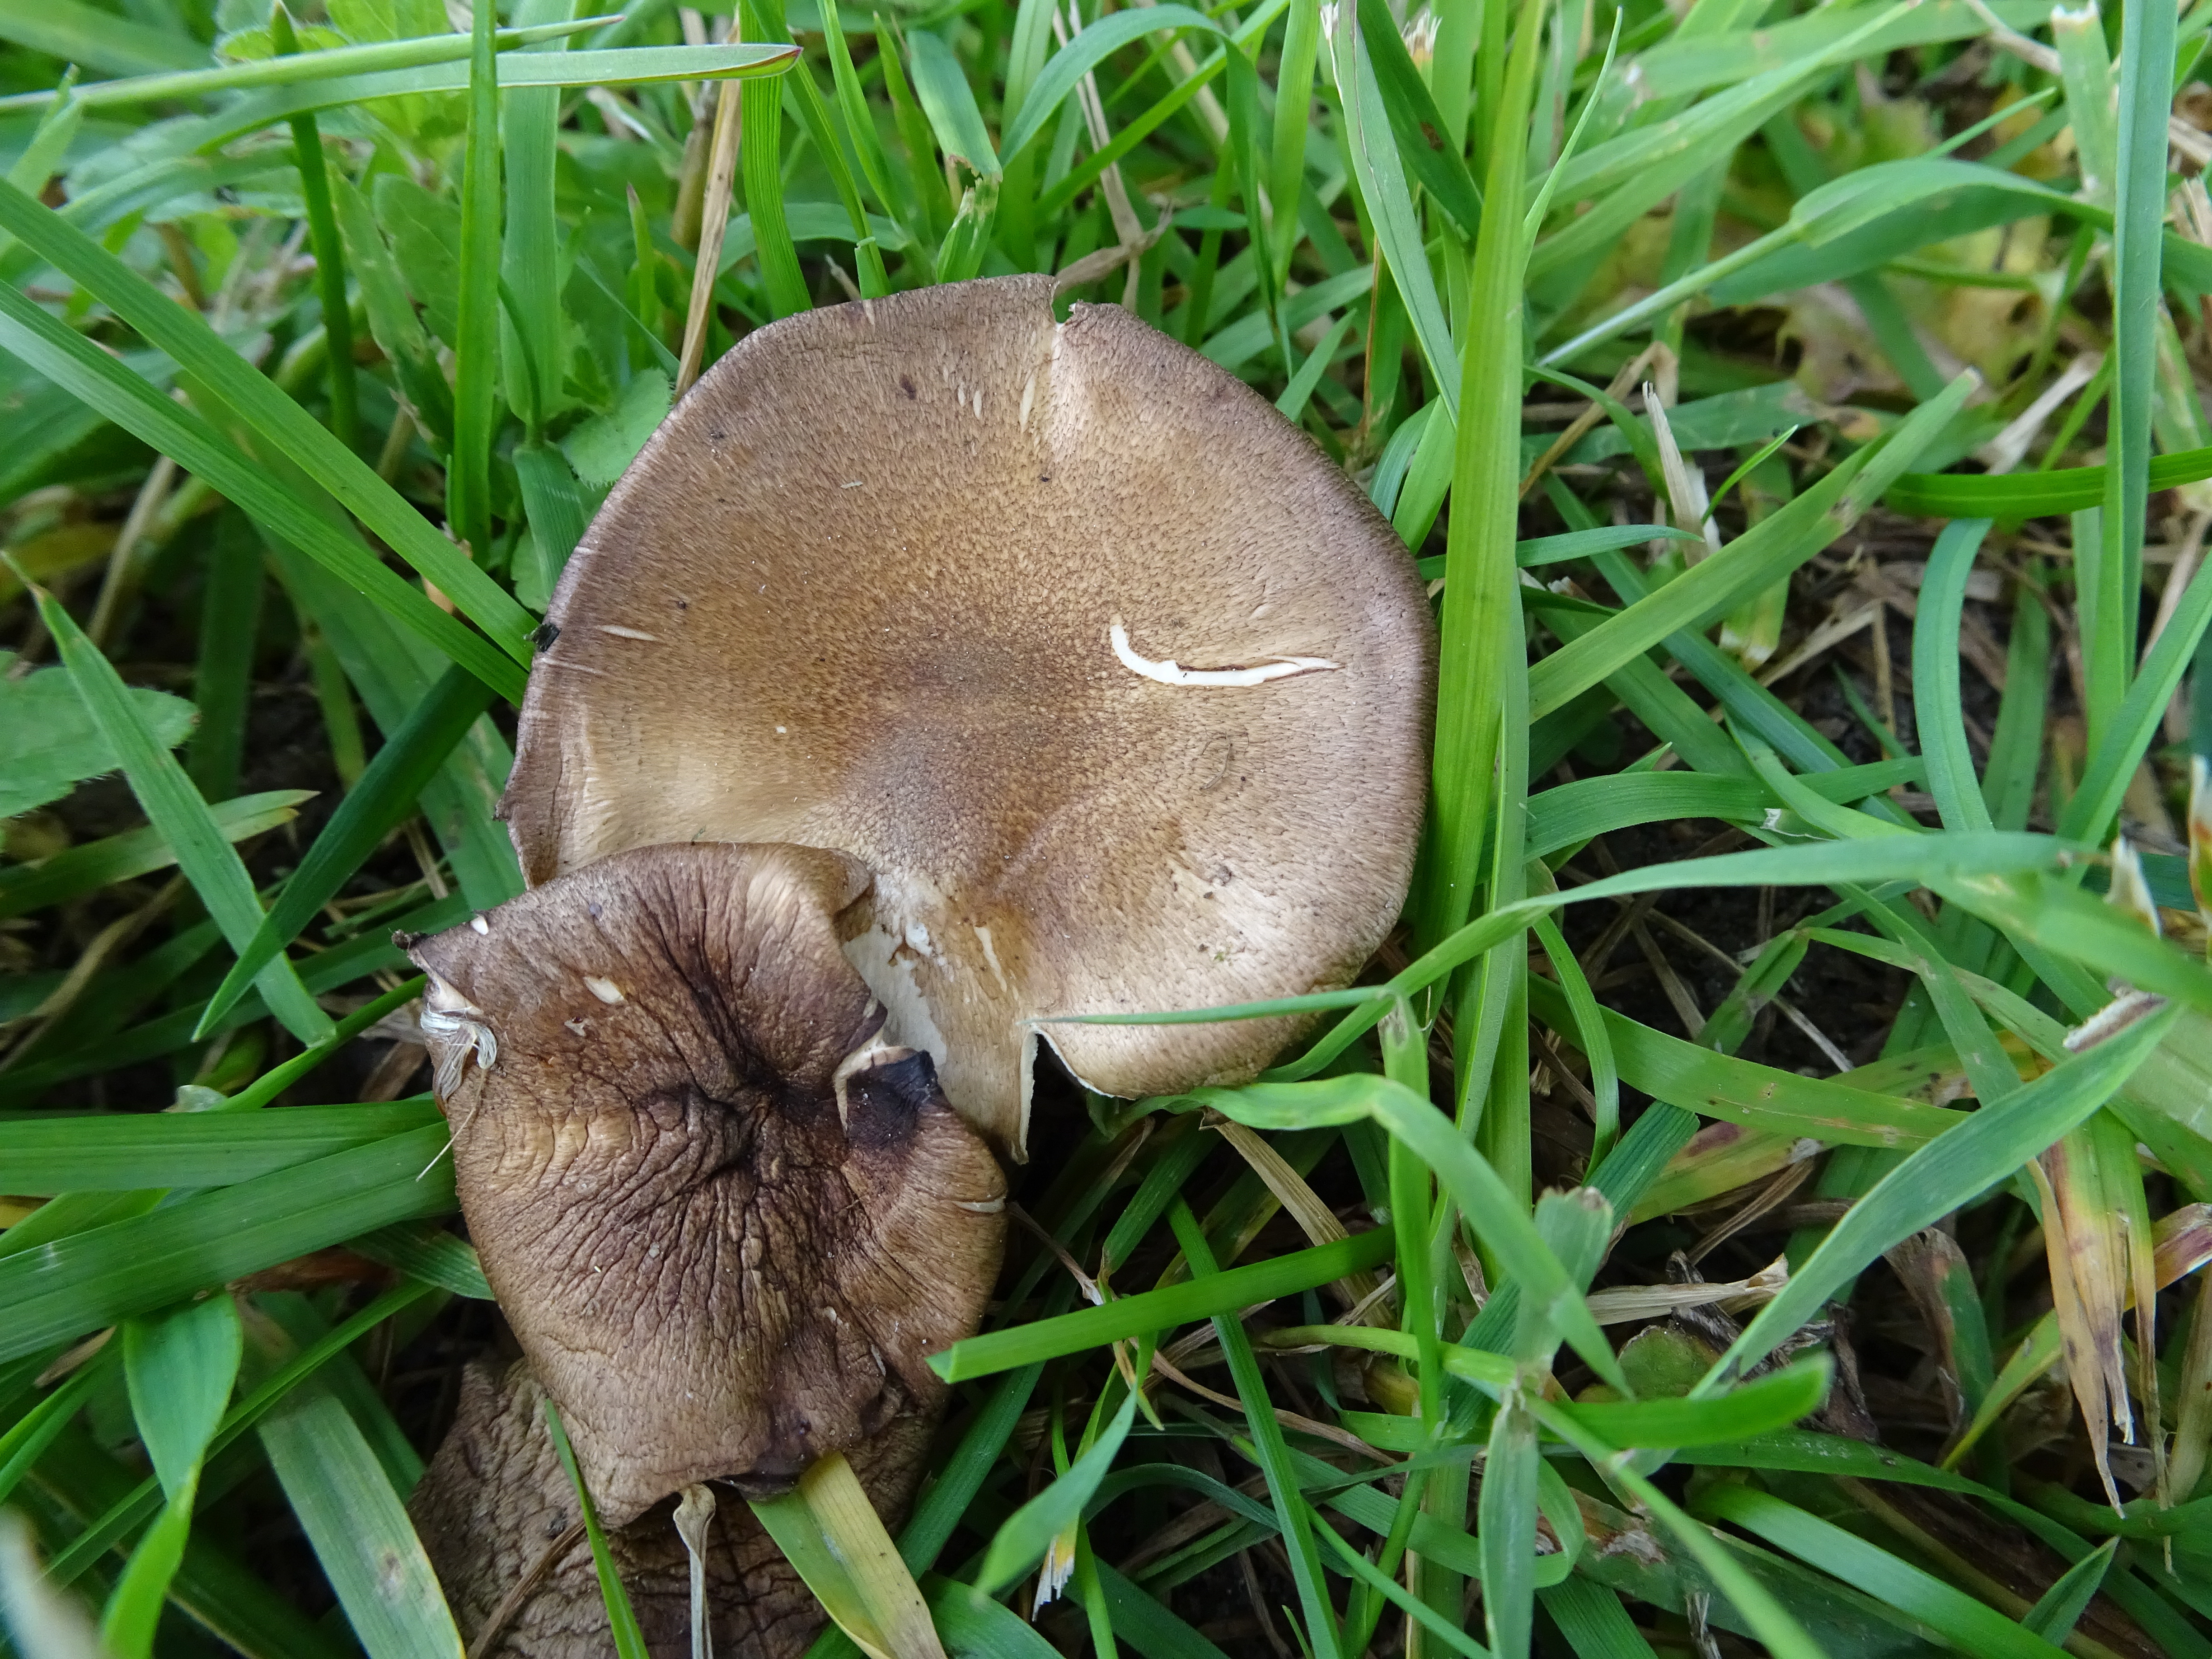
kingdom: Fungi
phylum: Basidiomycota
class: Agaricomycetes
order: Polyporales
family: Polyporaceae
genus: Lentinus
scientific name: Lentinus substrictus
